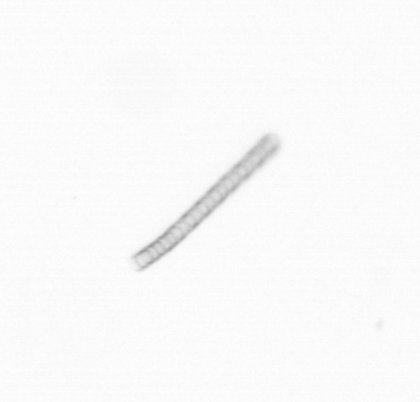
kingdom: Chromista
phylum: Ochrophyta
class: Bacillariophyceae
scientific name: Bacillariophyceae
